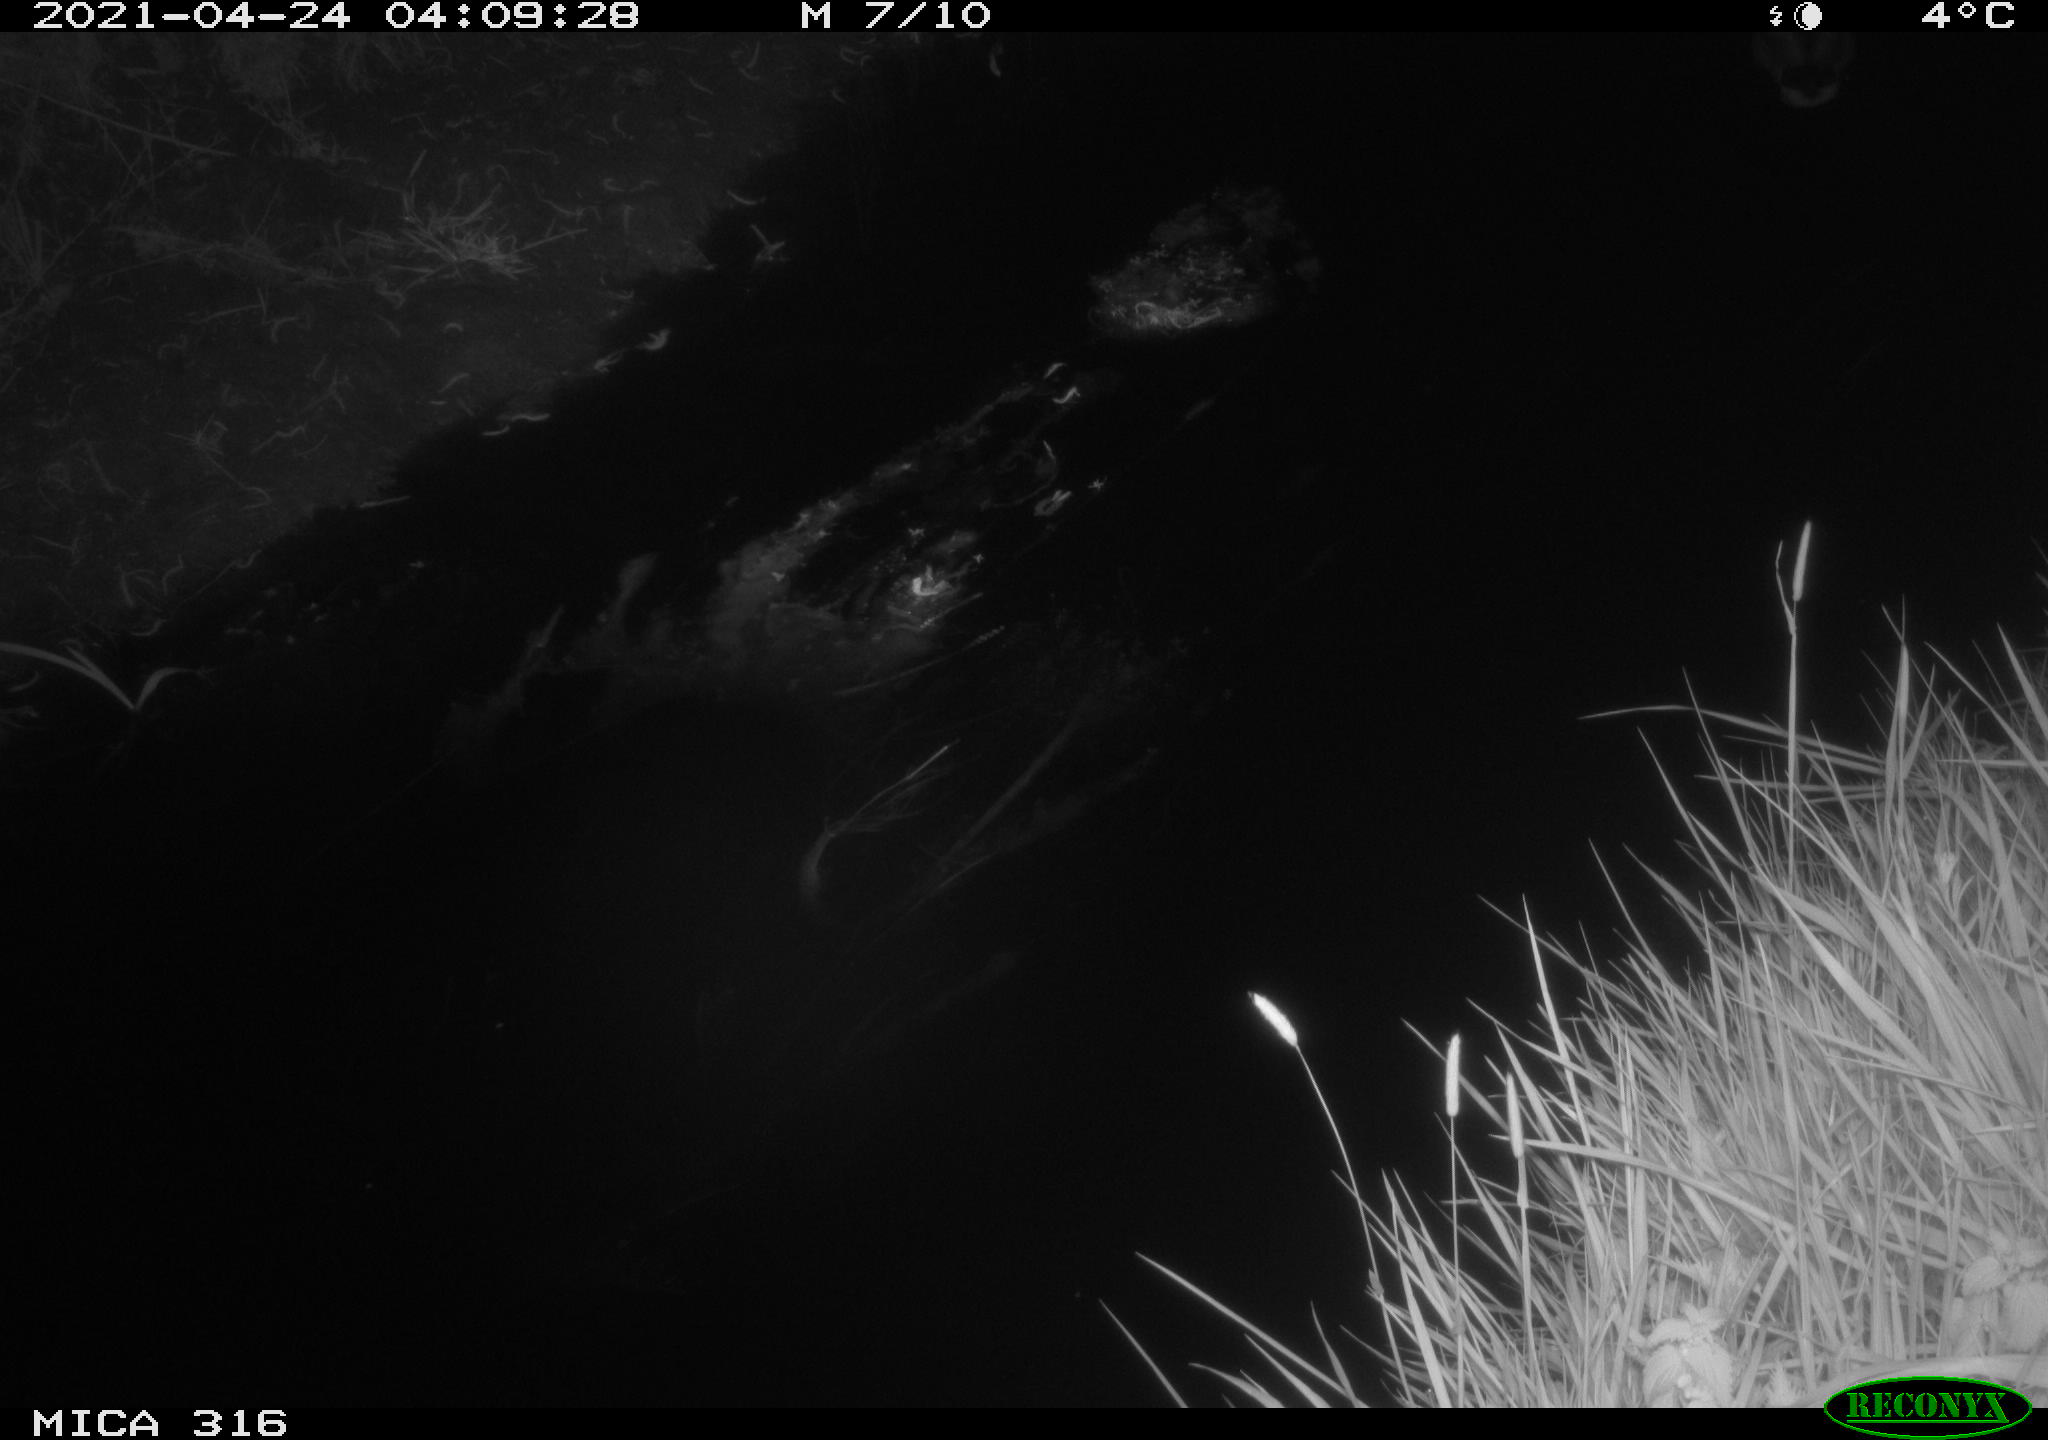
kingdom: Animalia
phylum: Chordata
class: Aves
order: Anseriformes
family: Anatidae
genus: Anas
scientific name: Anas platyrhynchos
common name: Mallard
